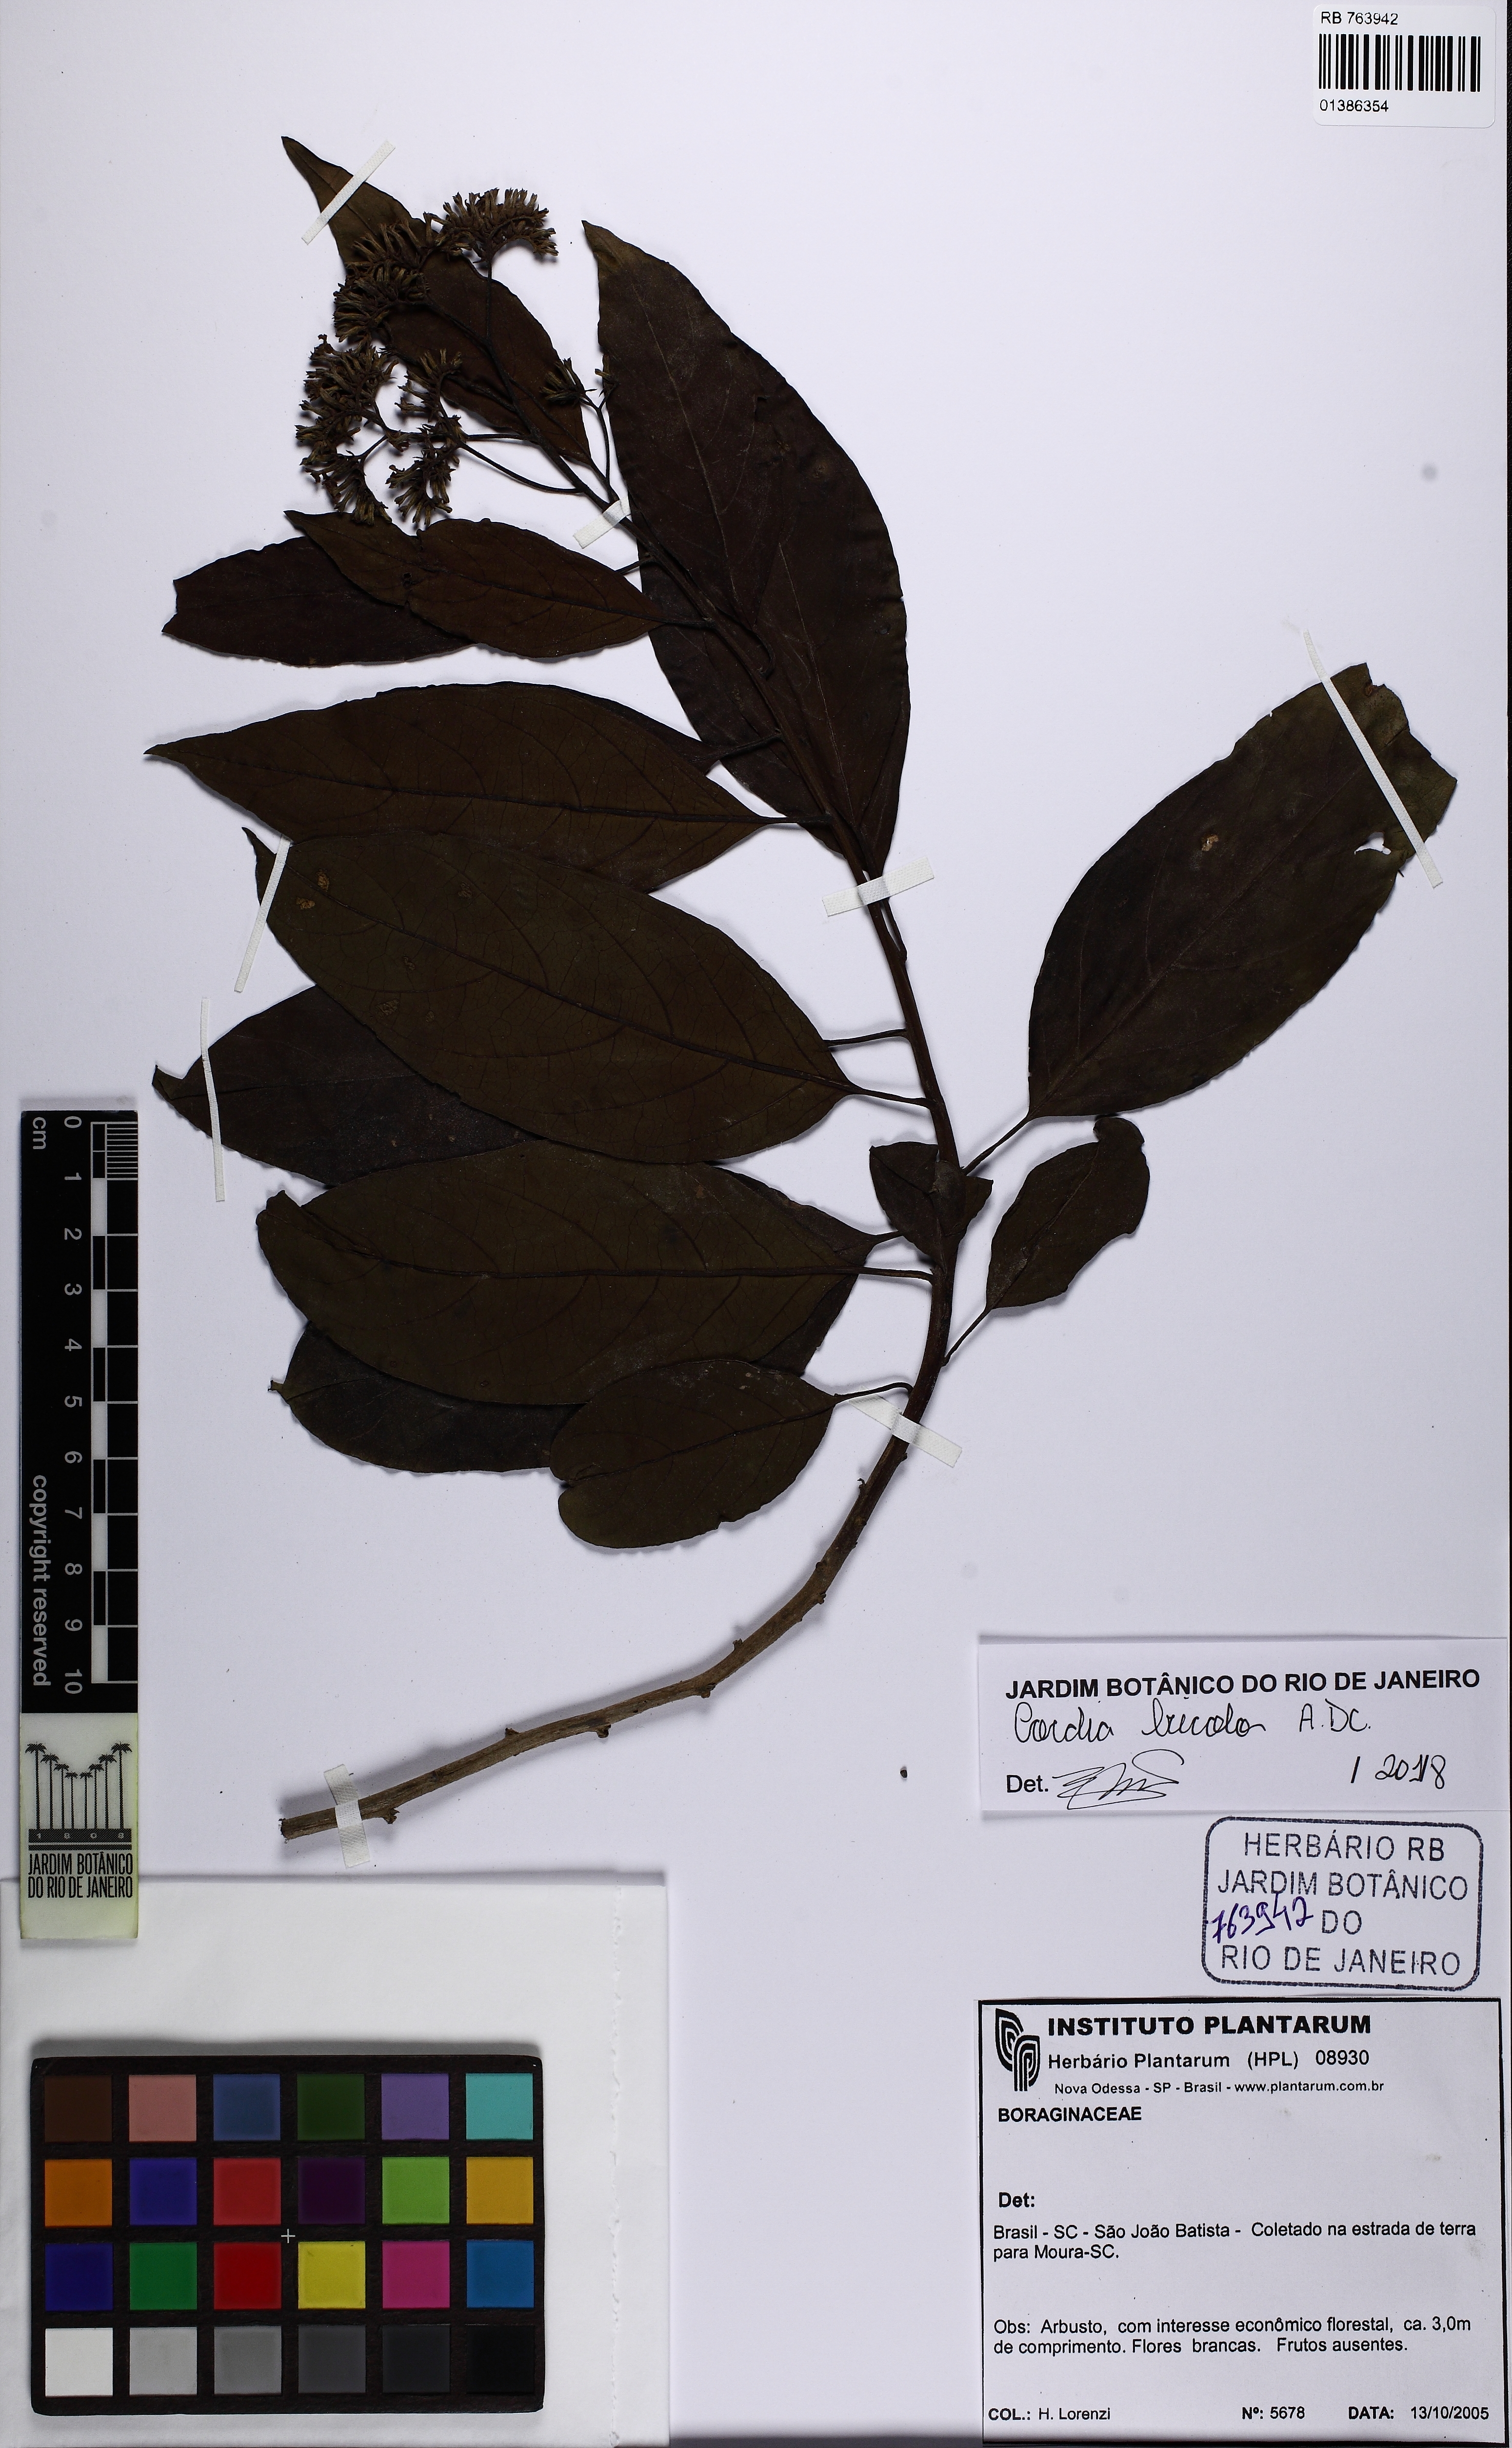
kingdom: Plantae
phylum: Tracheophyta
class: Magnoliopsida
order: Boraginales
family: Cordiaceae
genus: Cordia
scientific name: Cordia bicolor
